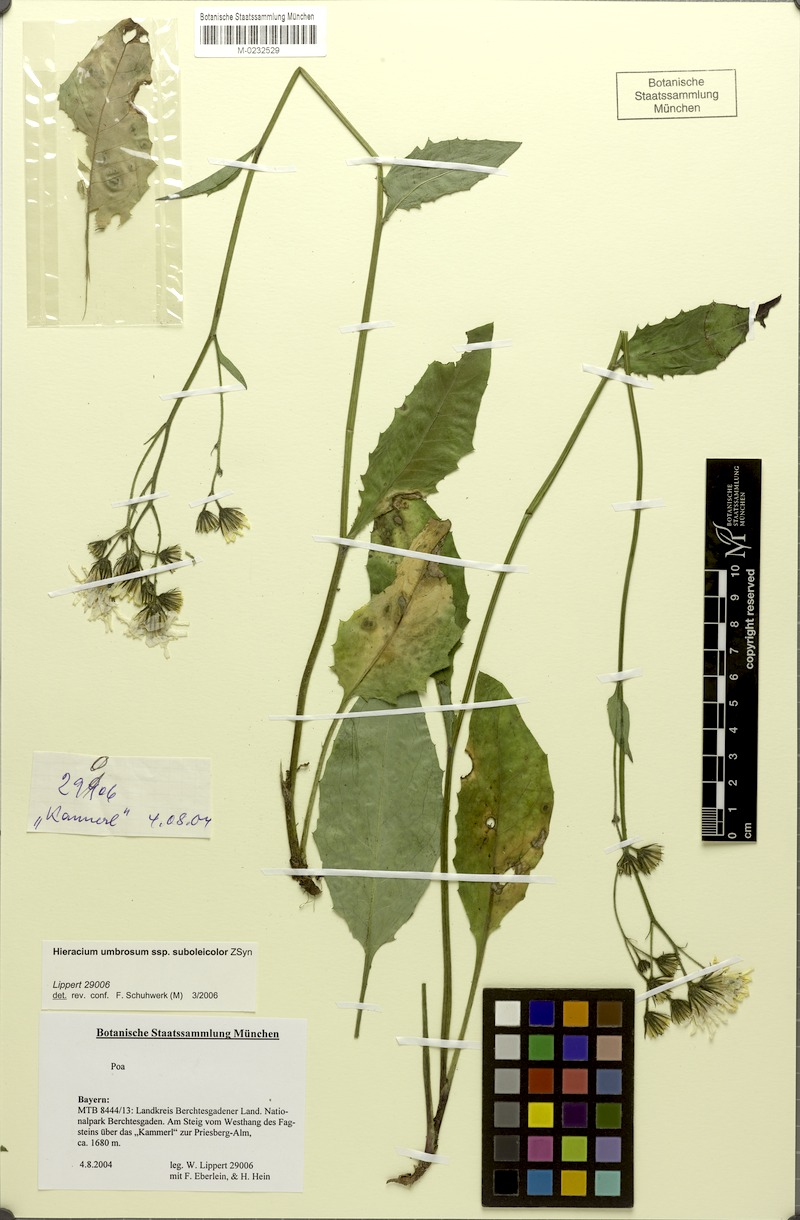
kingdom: Plantae
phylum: Tracheophyta
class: Magnoliopsida
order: Asterales
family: Asteraceae
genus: Hieracium
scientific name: Hieracium umbrosum
